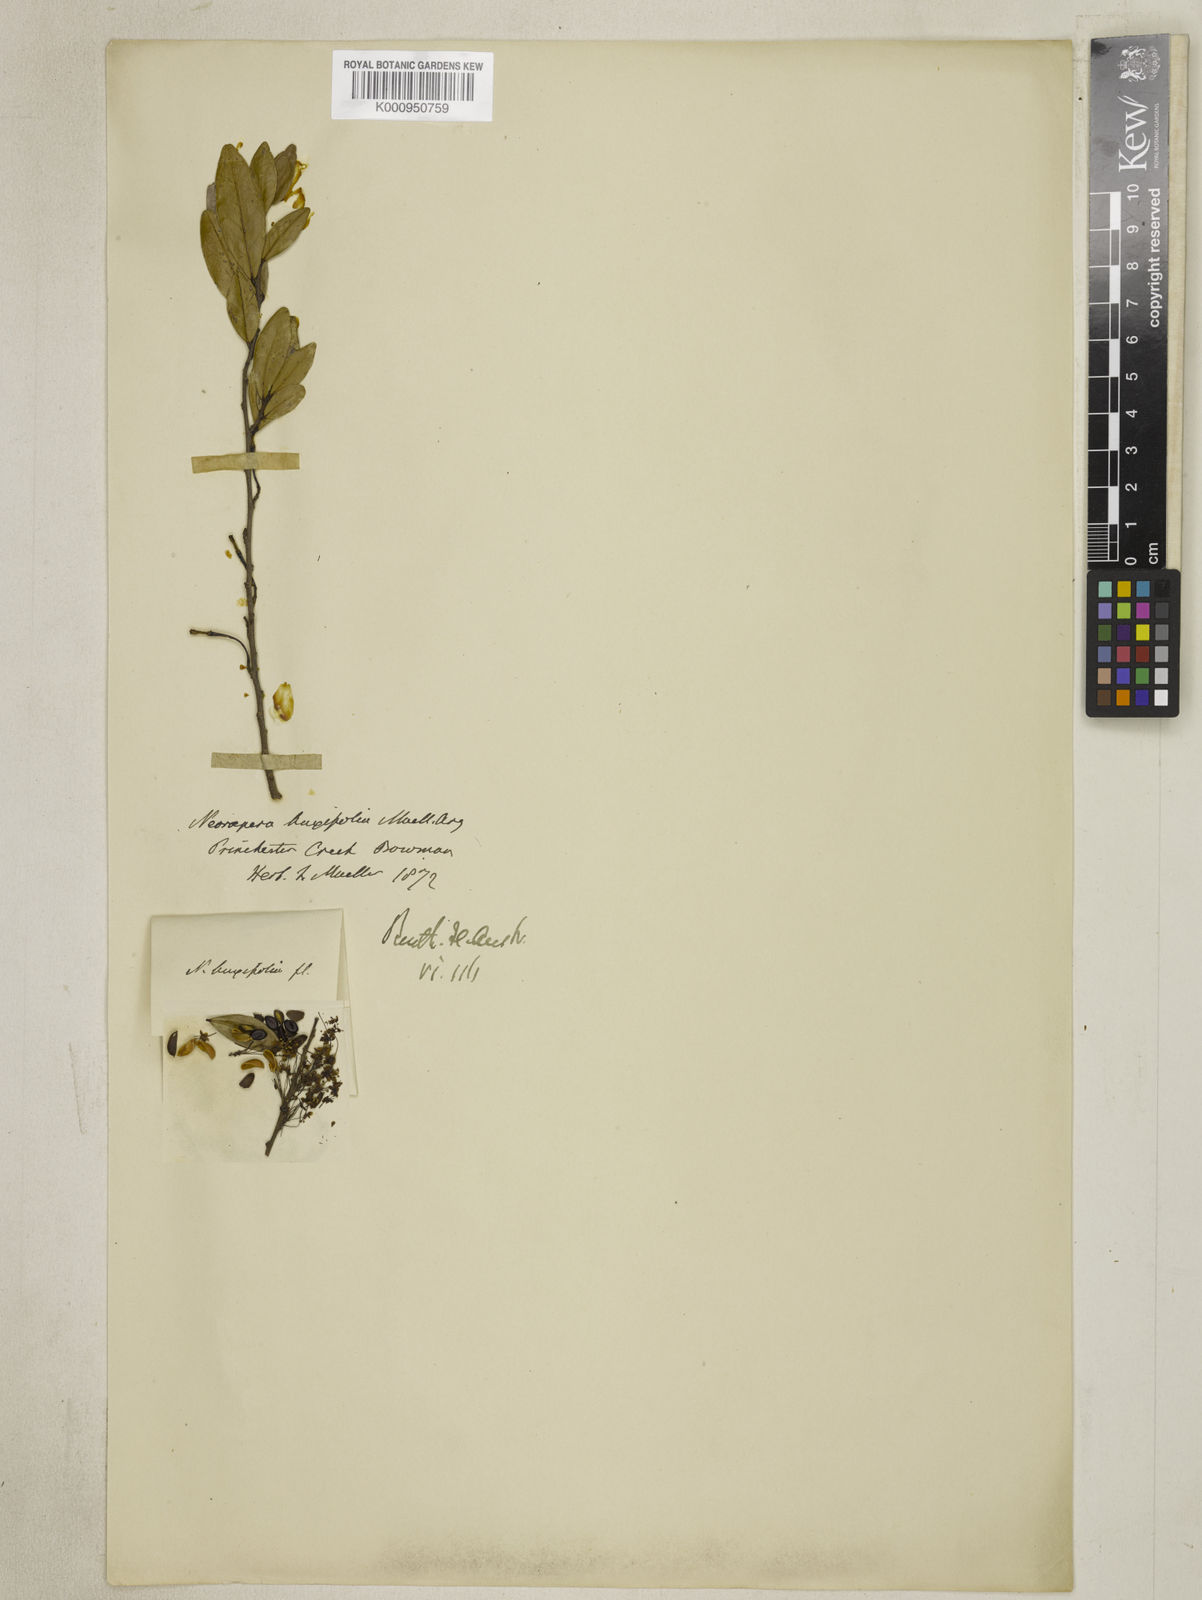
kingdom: Plantae
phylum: Tracheophyta
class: Magnoliopsida
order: Malpighiales
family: Picrodendraceae
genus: Neoroepera
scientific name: Neoroepera
